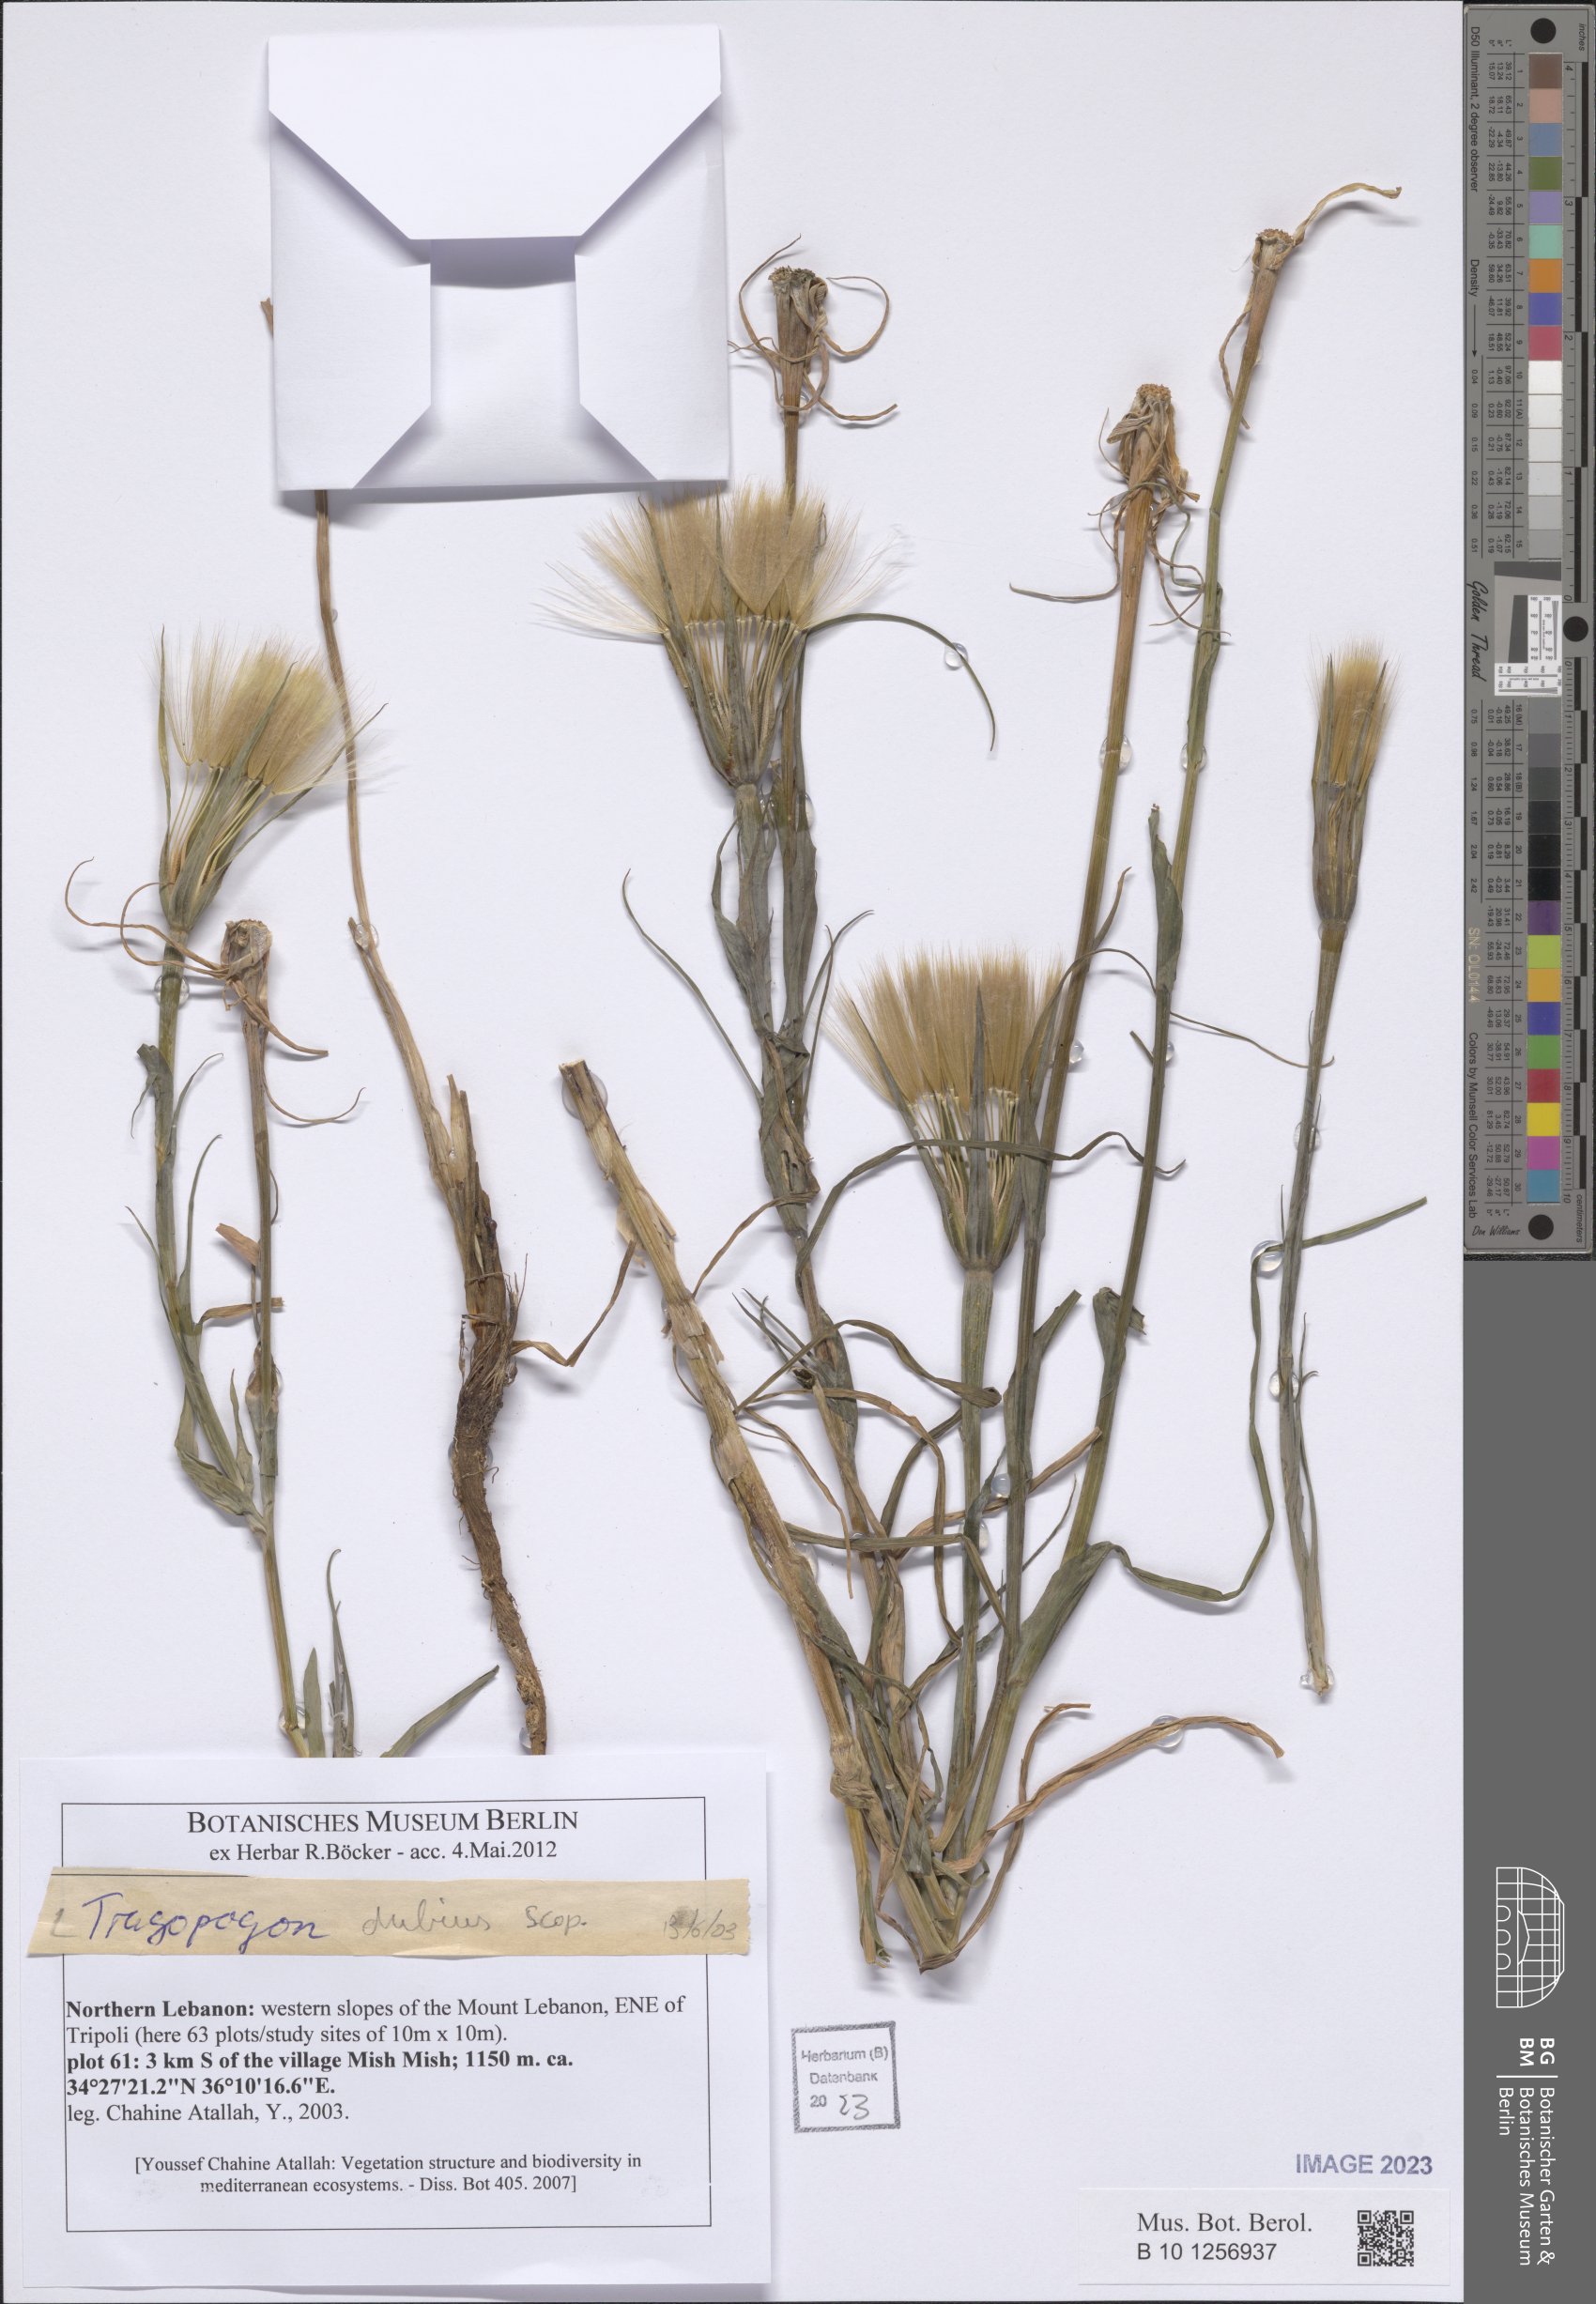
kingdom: Plantae
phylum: Tracheophyta
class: Magnoliopsida
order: Asterales
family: Asteraceae
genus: Tragopogon
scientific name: Tragopogon dubius
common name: Yellow salsify
